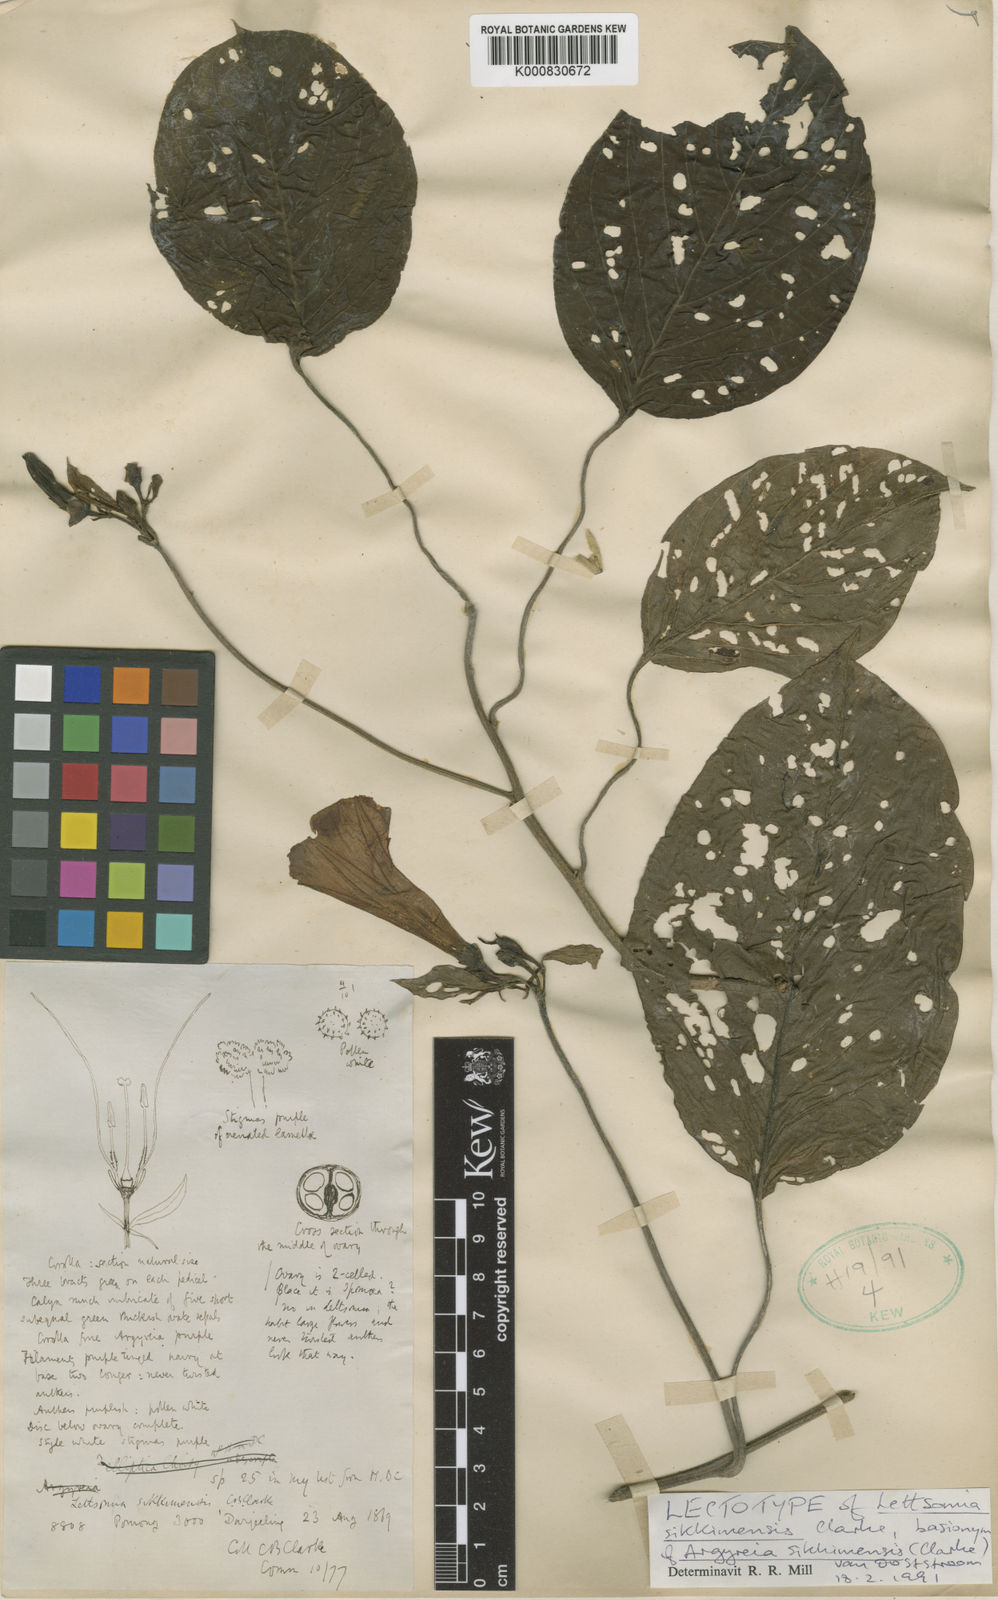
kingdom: Plantae
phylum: Tracheophyta
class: Magnoliopsida
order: Solanales
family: Convolvulaceae
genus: Argyreia
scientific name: Argyreia sikkimensis
